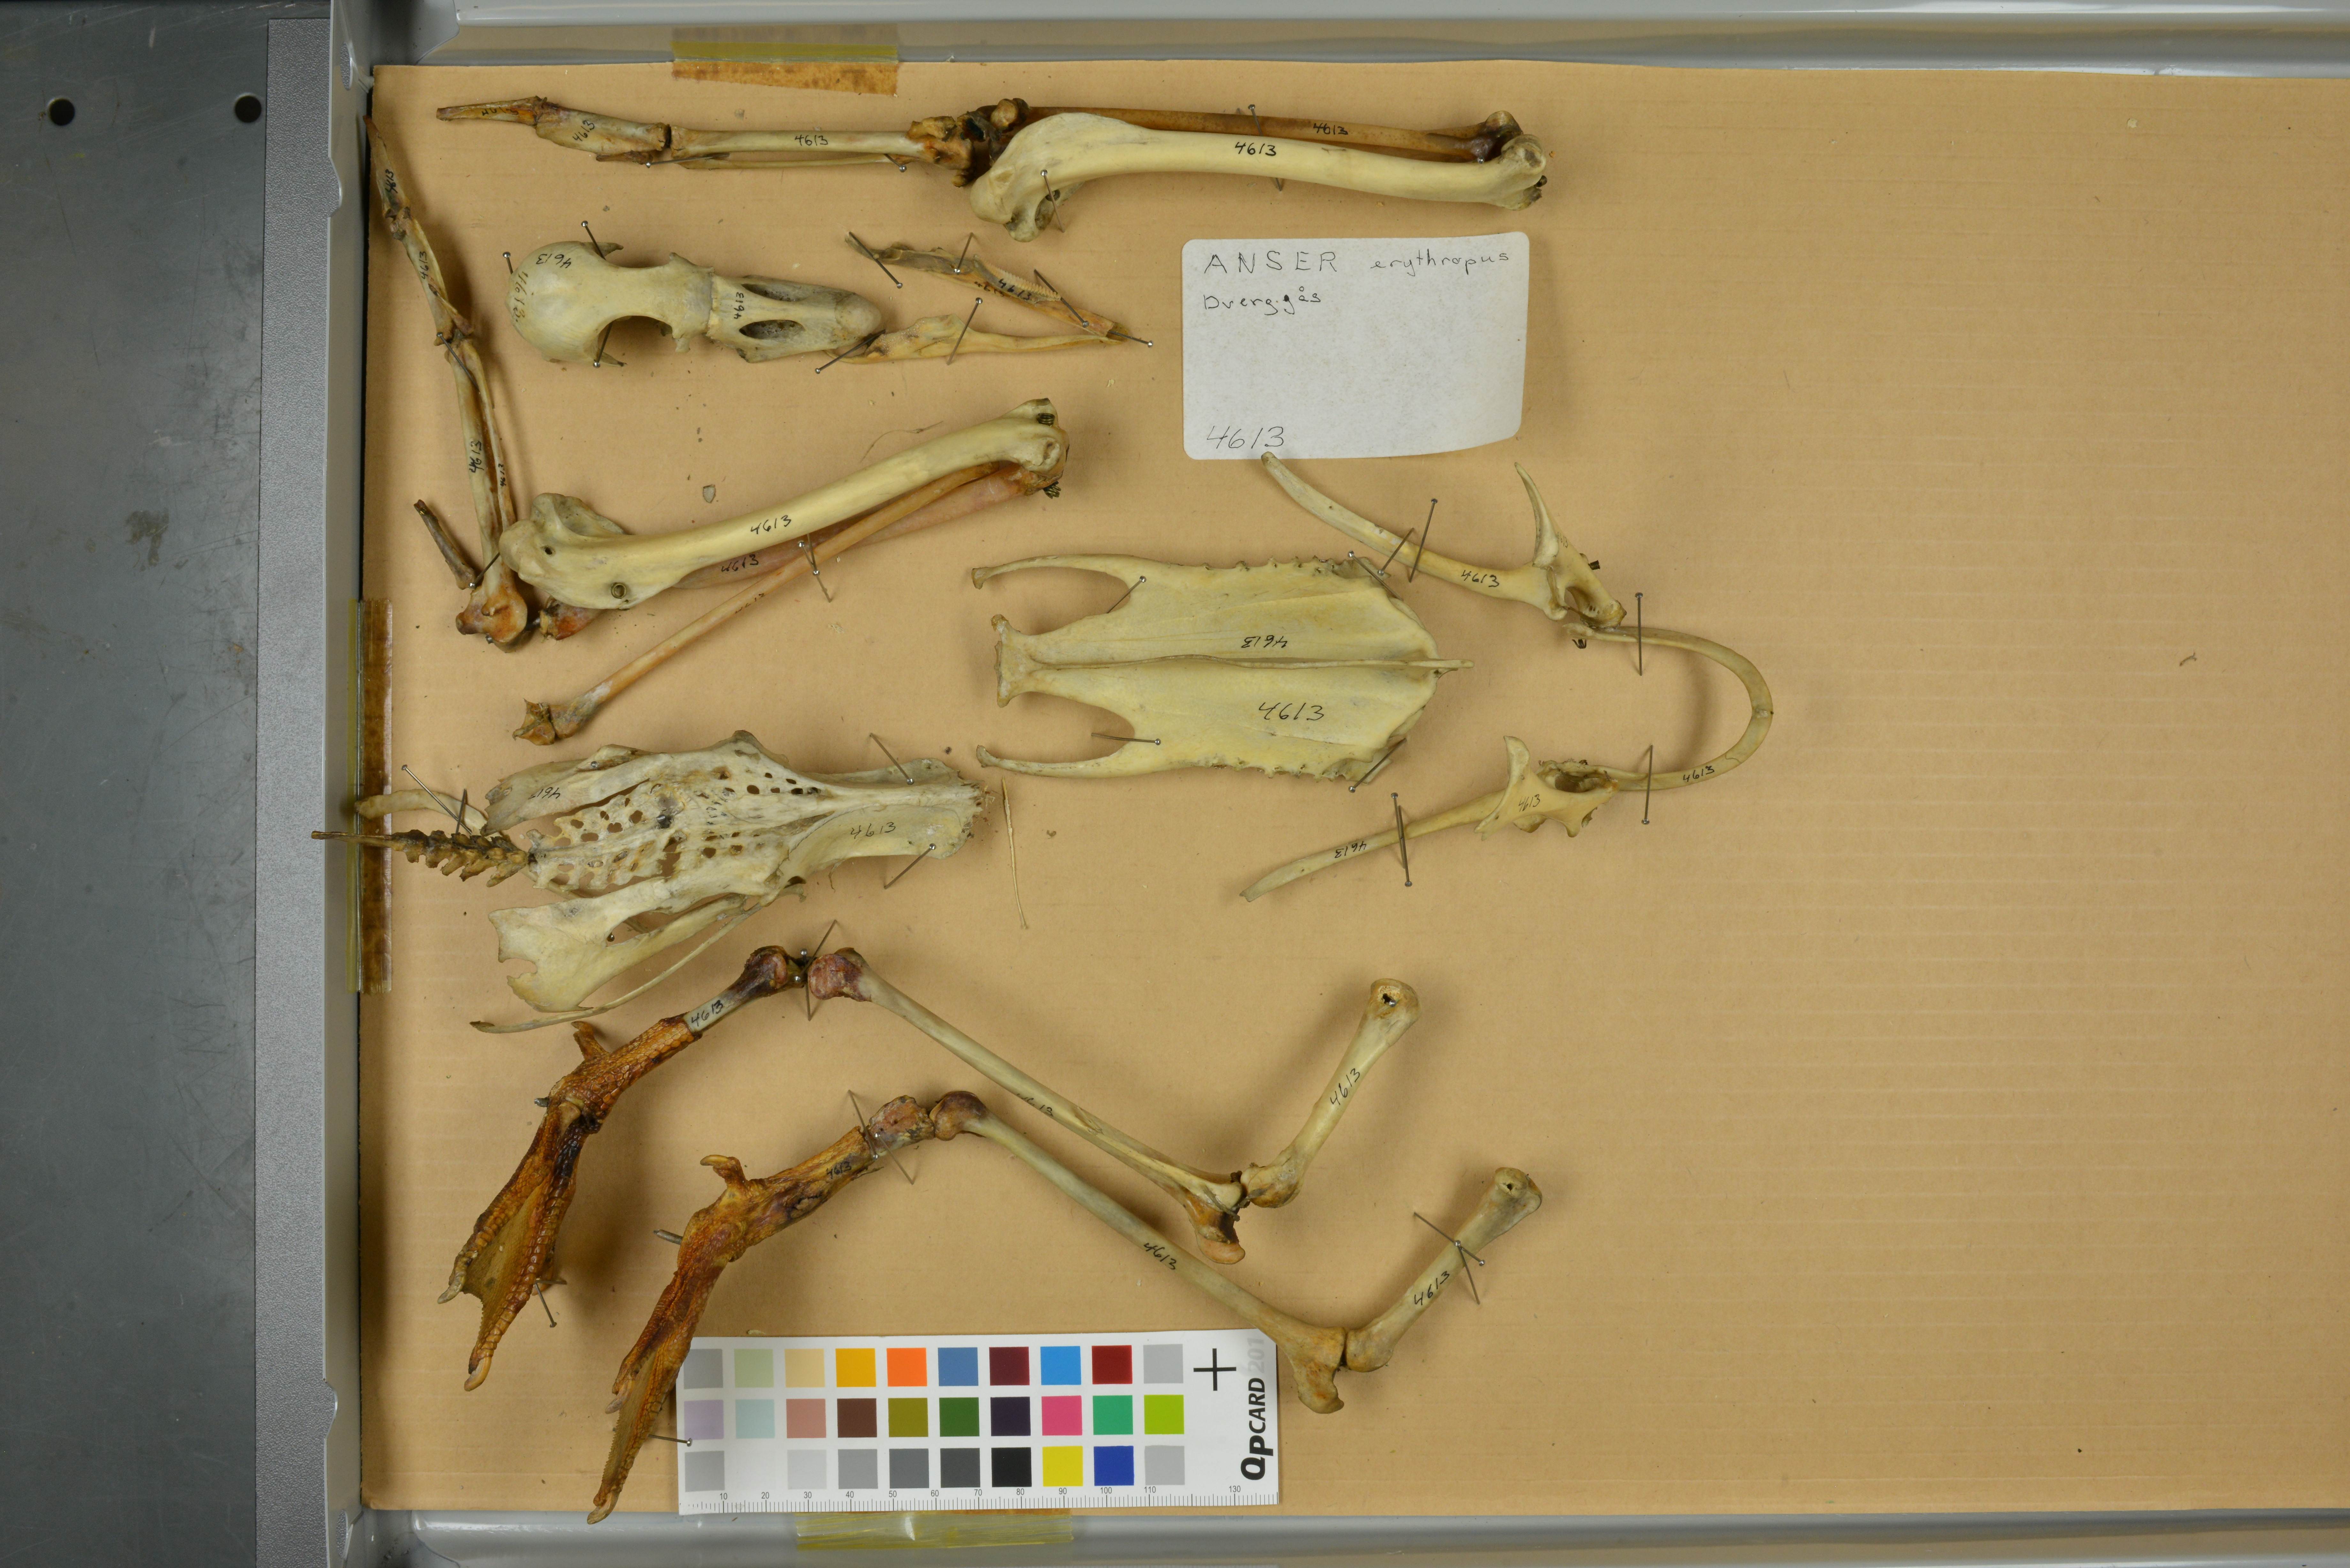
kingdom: Animalia
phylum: Chordata
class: Aves
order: Anseriformes
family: Anatidae
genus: Anser
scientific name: Anser erythropus
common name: Lesser white-fronted goose
